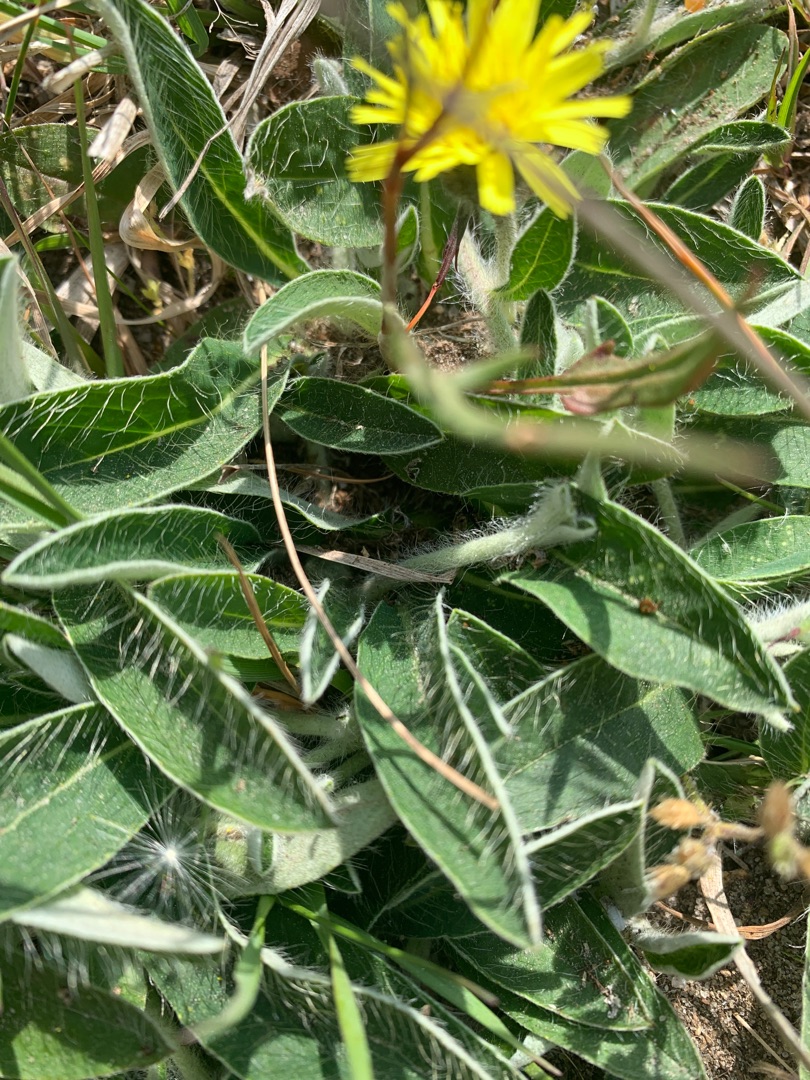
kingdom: Plantae
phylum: Tracheophyta
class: Magnoliopsida
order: Asterales
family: Asteraceae
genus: Pilosella
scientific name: Pilosella officinarum
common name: Håret høgeurt
